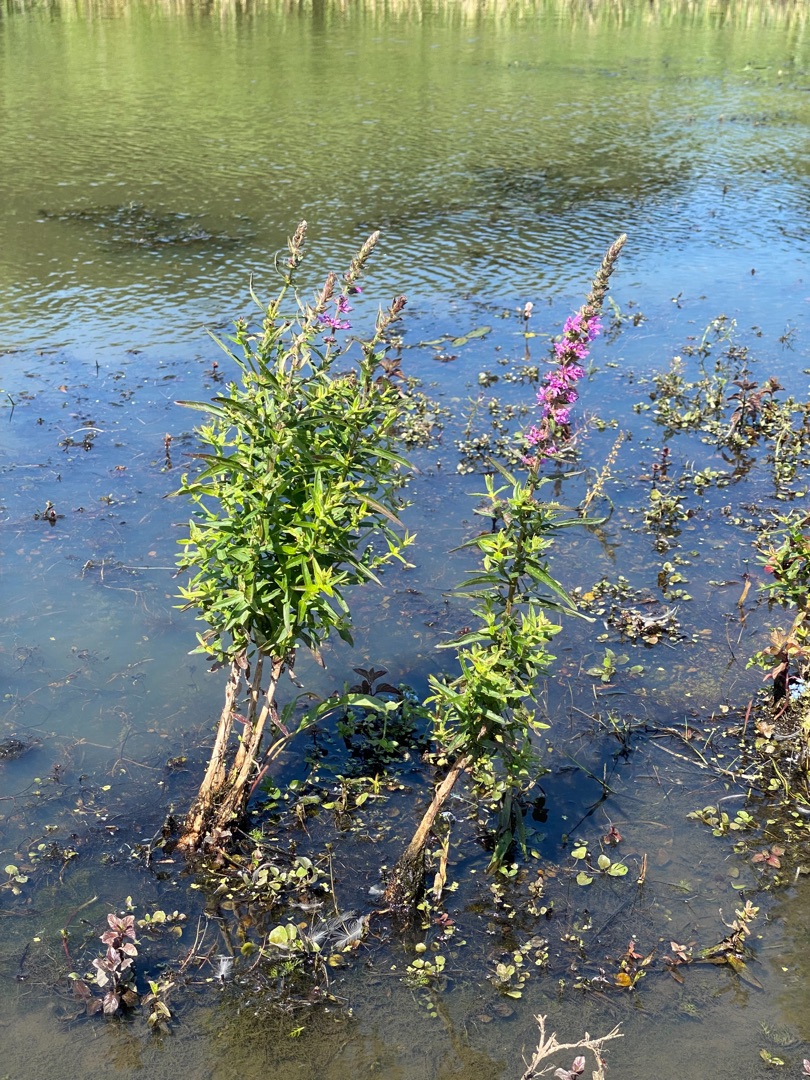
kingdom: Plantae
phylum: Tracheophyta
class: Magnoliopsida
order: Myrtales
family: Lythraceae
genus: Lythrum
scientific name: Lythrum salicaria
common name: Kattehale
